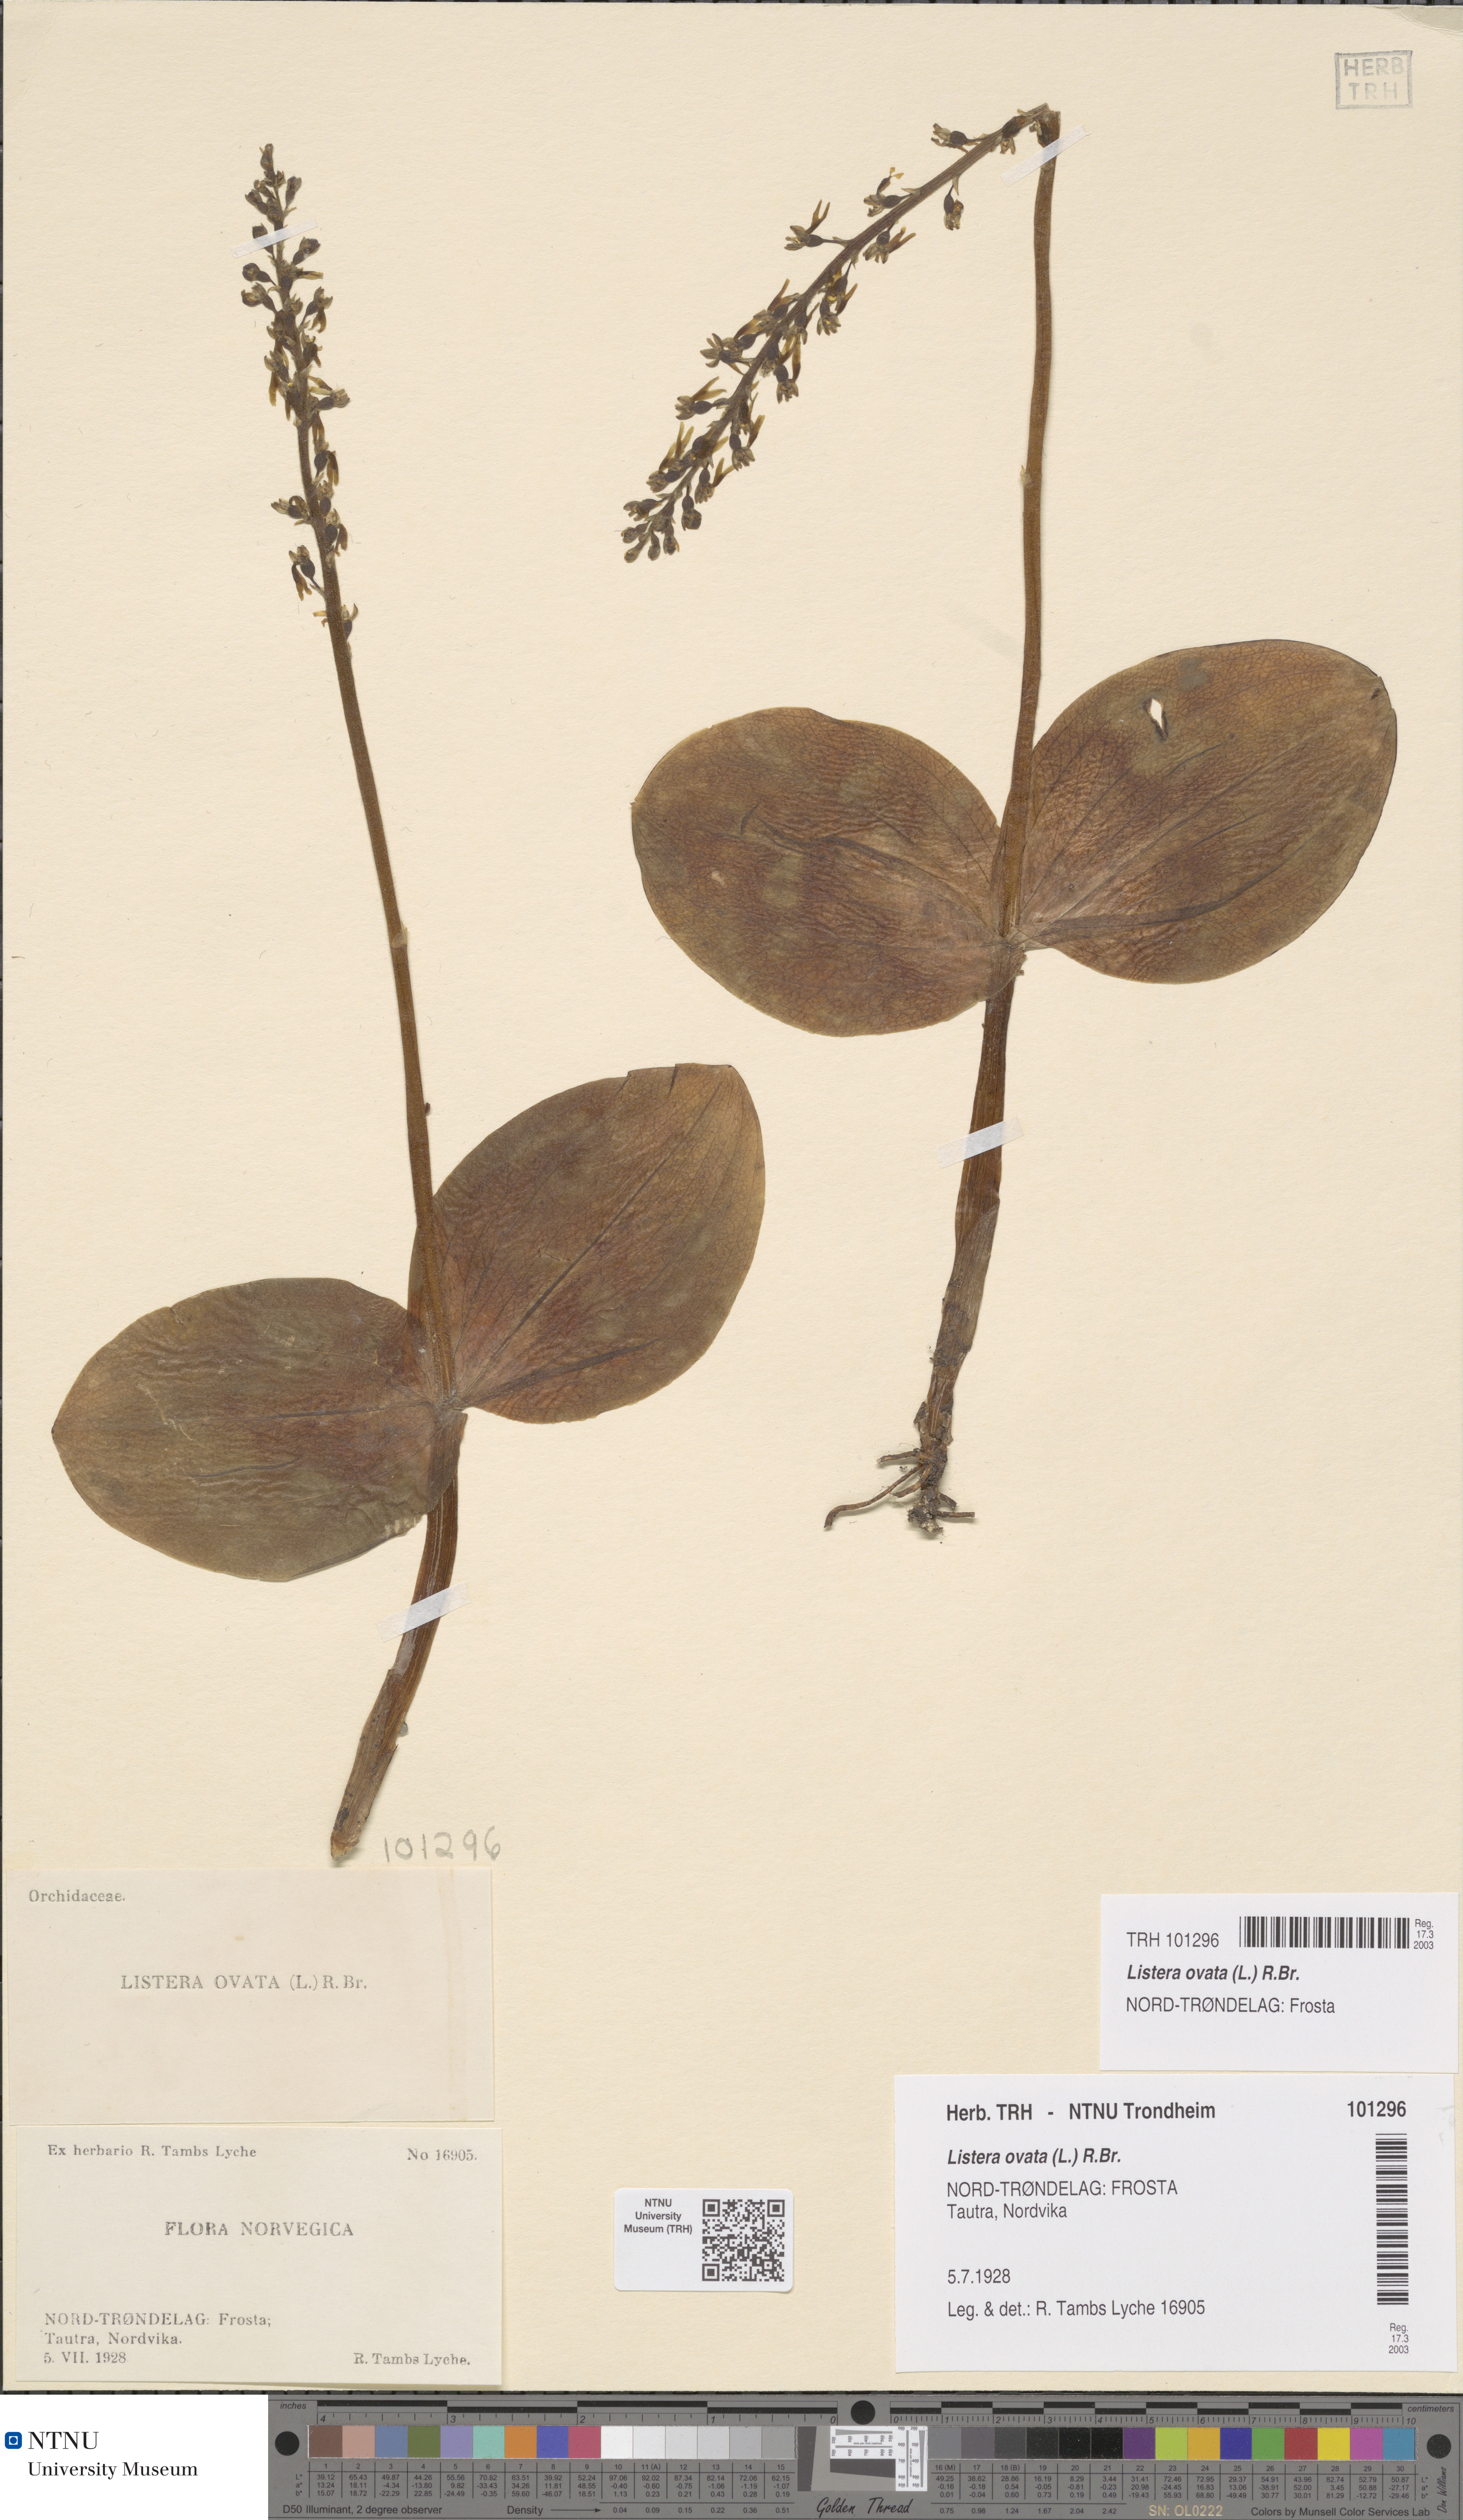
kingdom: Plantae
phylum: Tracheophyta
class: Liliopsida
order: Asparagales
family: Orchidaceae
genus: Neottia
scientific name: Neottia ovata
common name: Common twayblade
